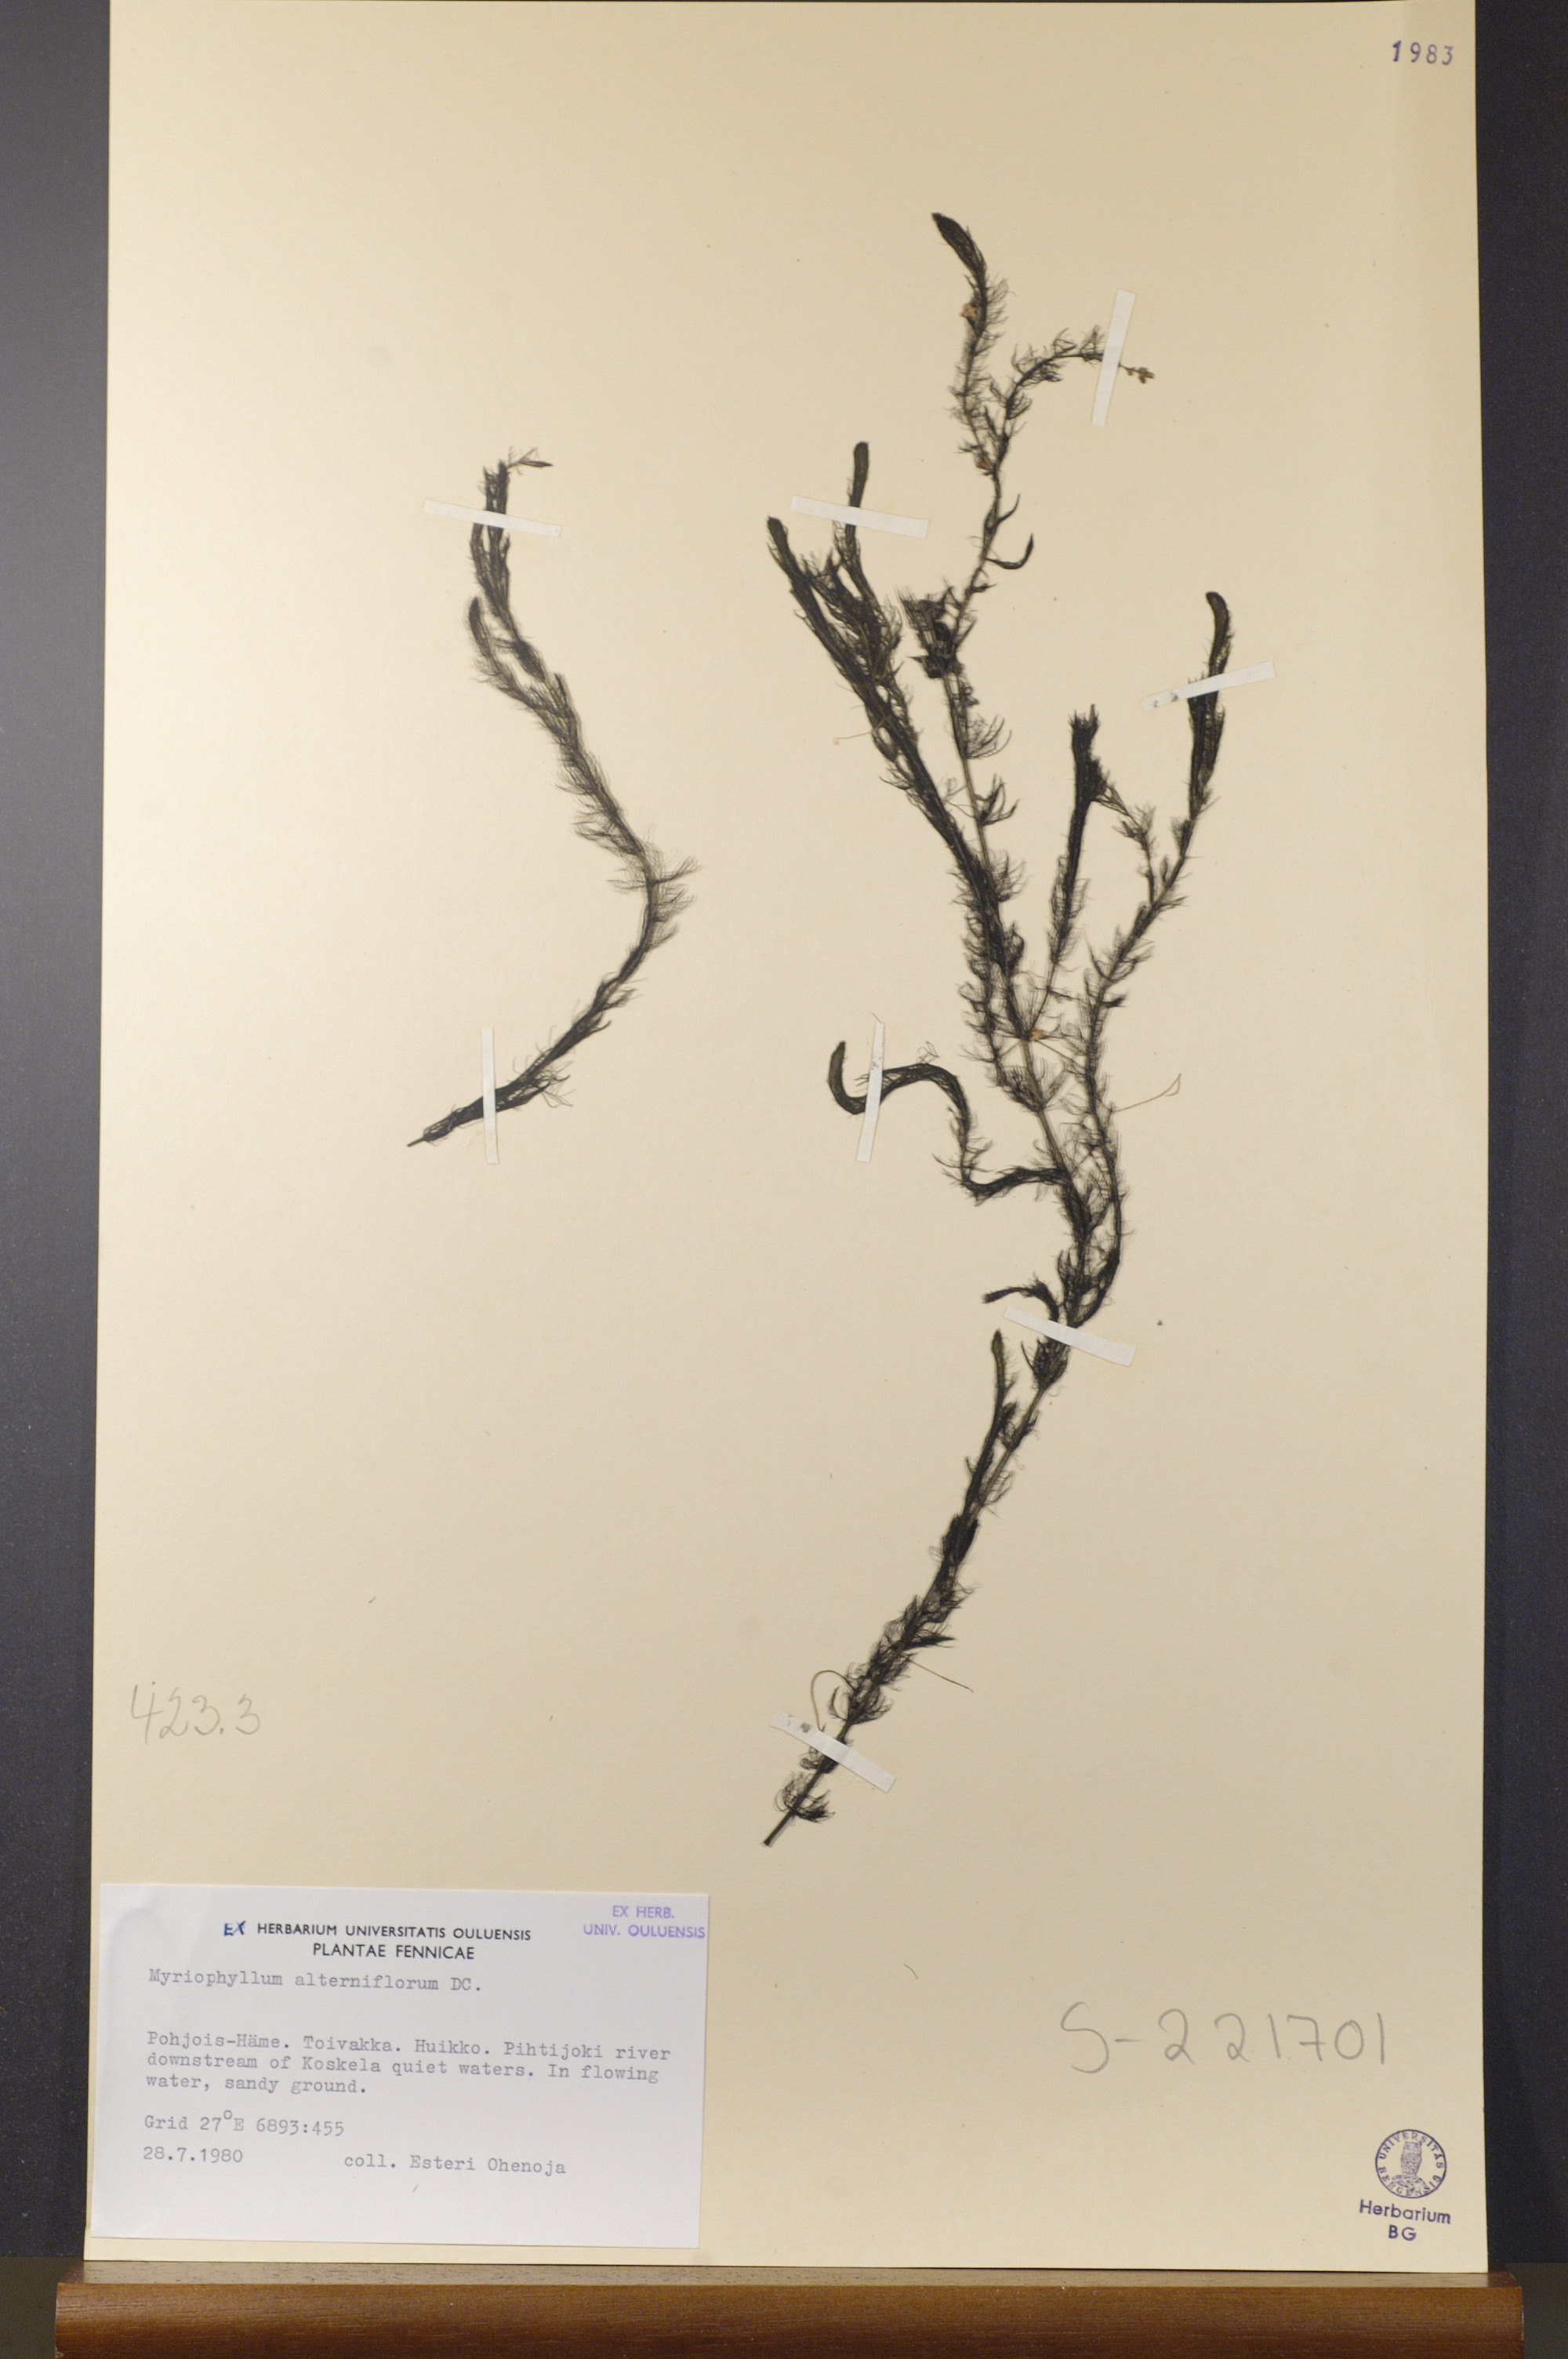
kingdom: Plantae
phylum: Tracheophyta
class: Magnoliopsida
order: Saxifragales
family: Haloragaceae
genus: Myriophyllum
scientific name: Myriophyllum alterniflorum
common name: Alternate water-milfoil
